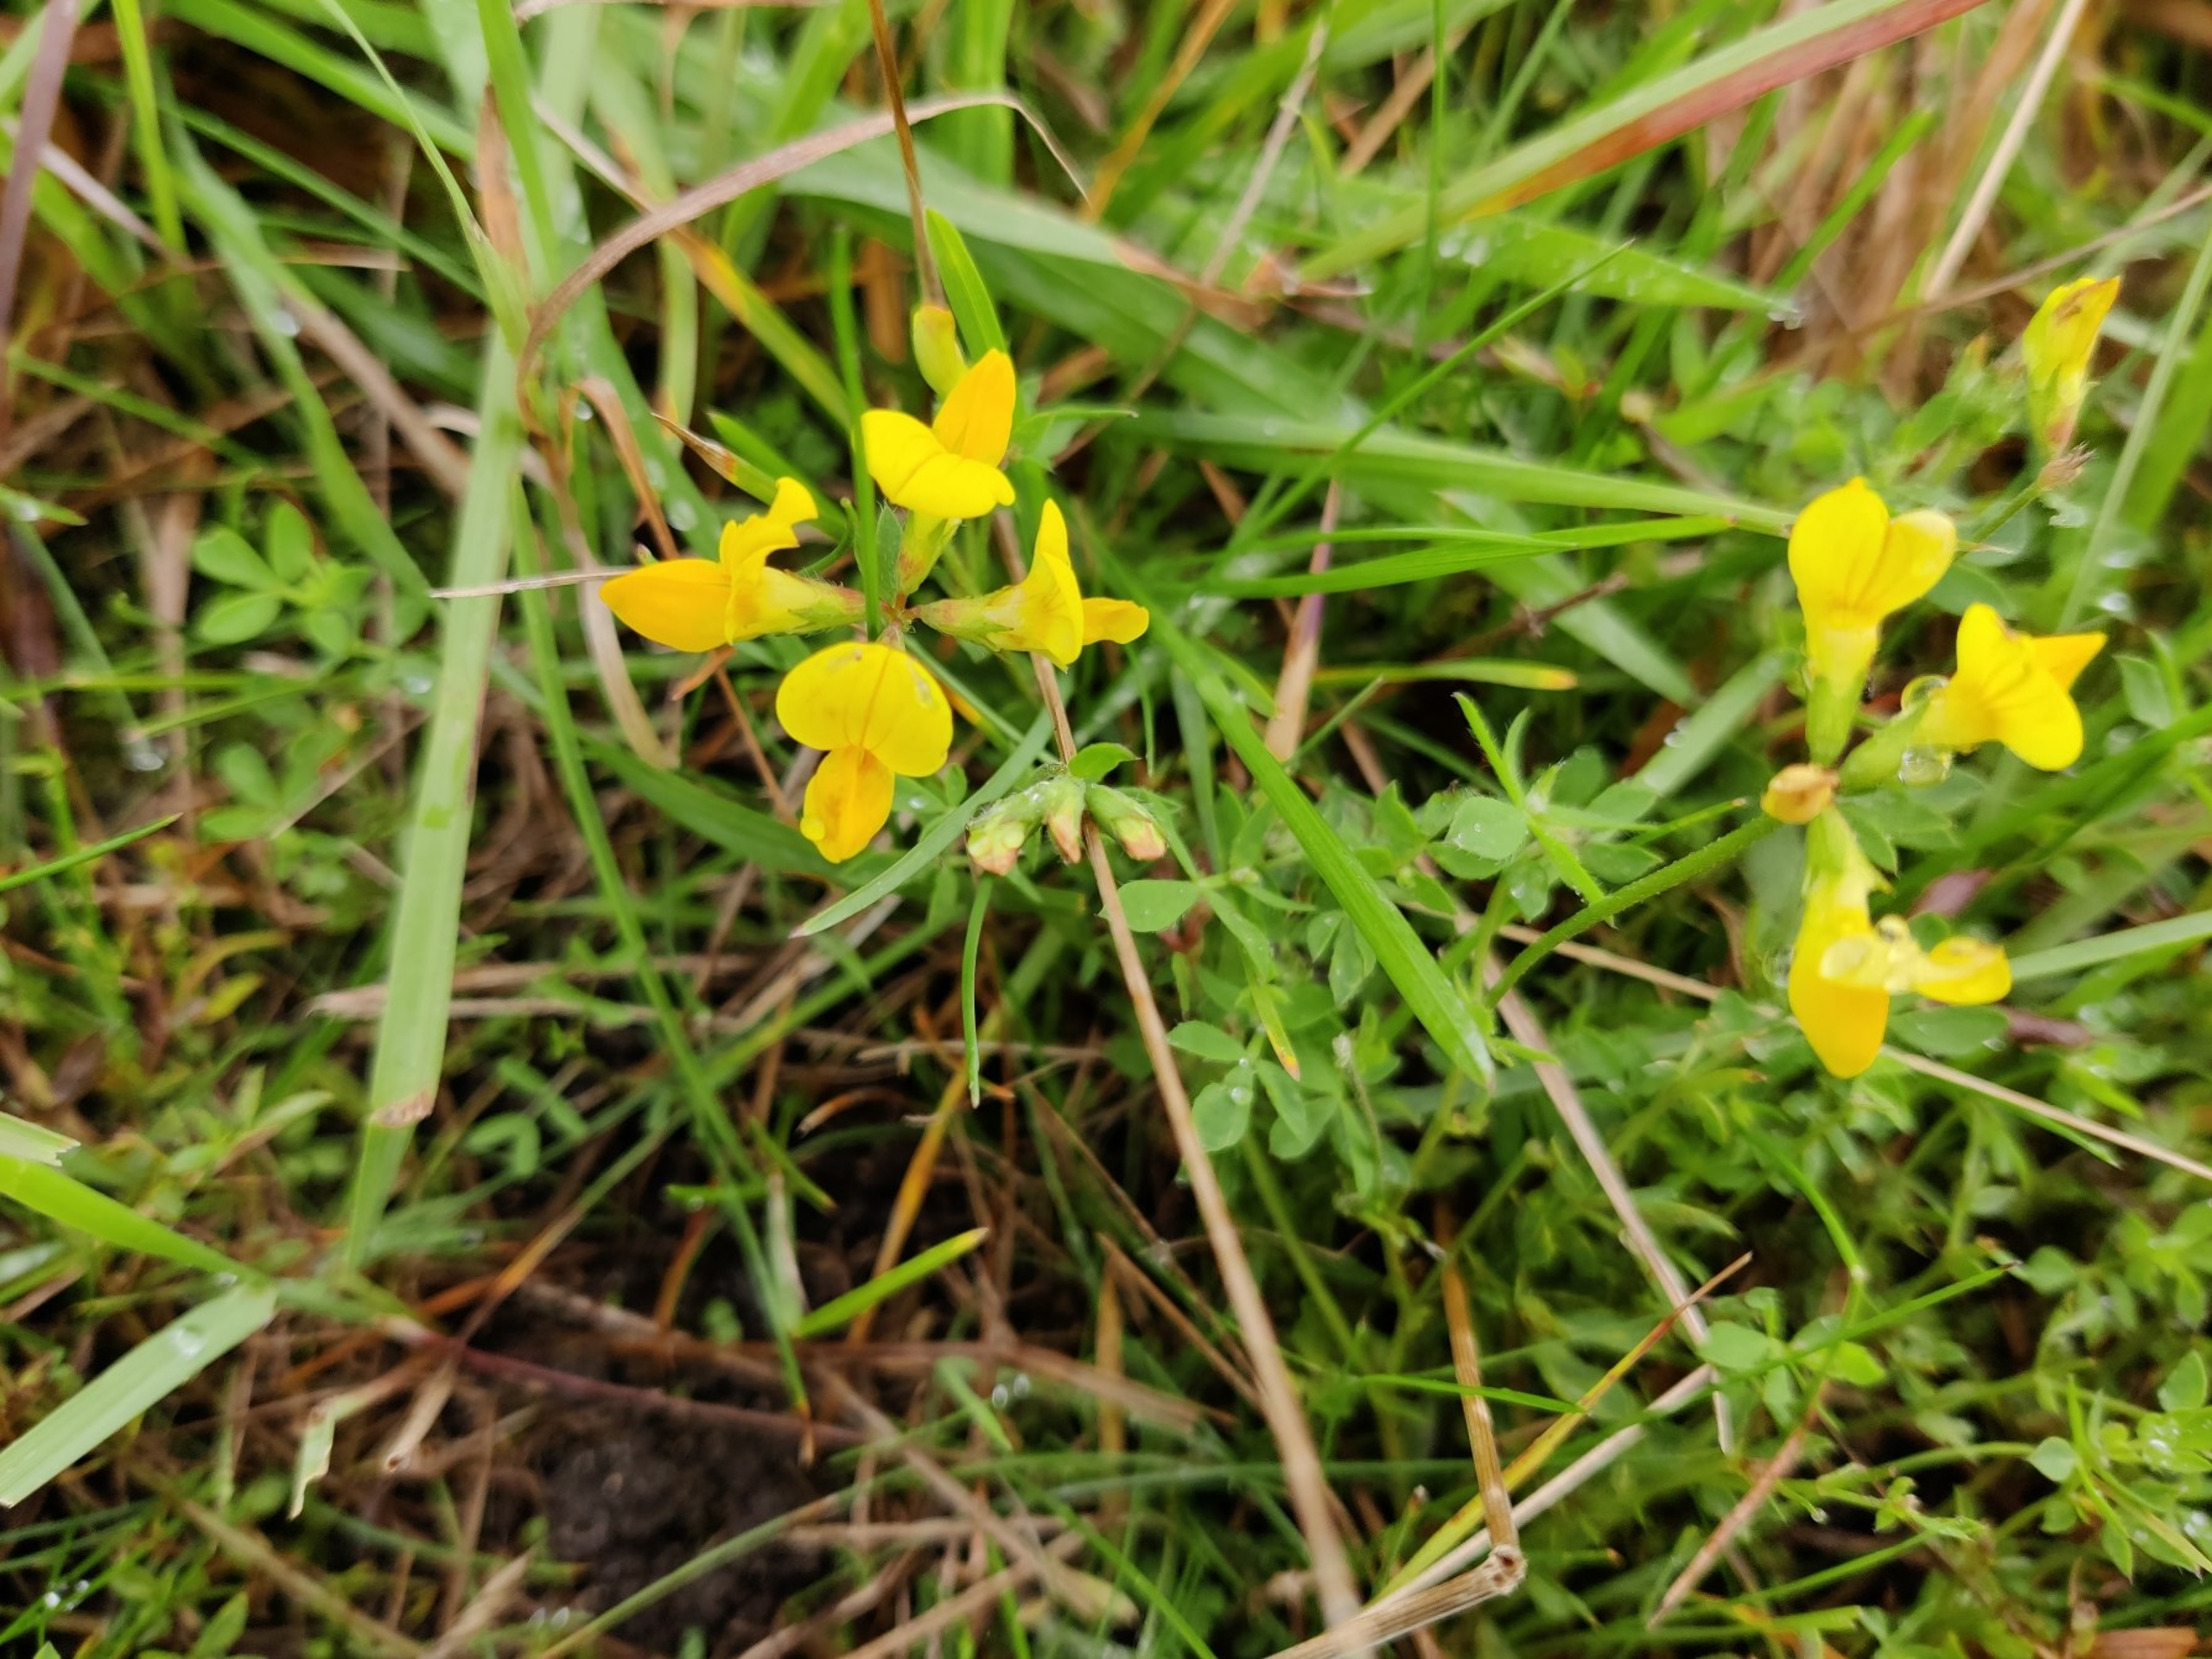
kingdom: Plantae
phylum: Tracheophyta
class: Magnoliopsida
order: Fabales
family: Fabaceae
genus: Lotus
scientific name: Lotus corniculatus
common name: Almindelig kællingetand
